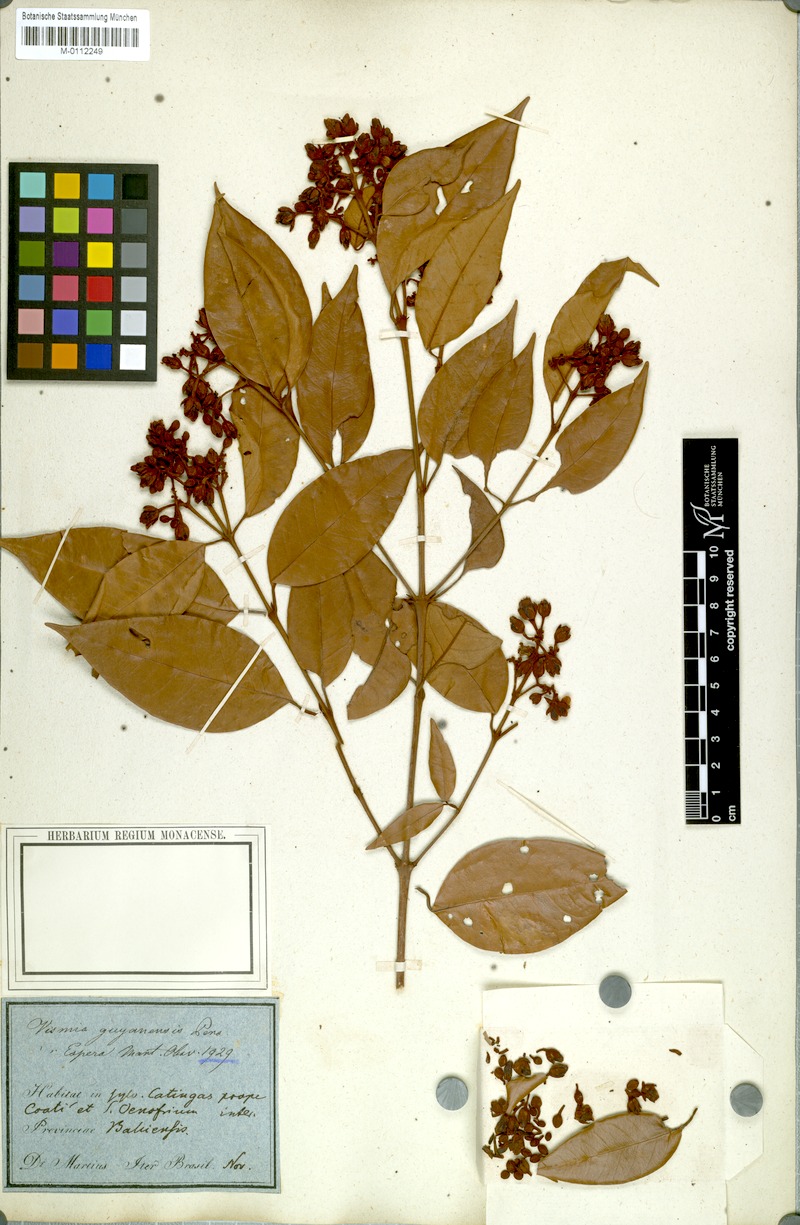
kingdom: Plantae
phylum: Tracheophyta
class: Magnoliopsida
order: Malpighiales
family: Hypericaceae
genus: Vismia
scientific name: Vismia guianensis
